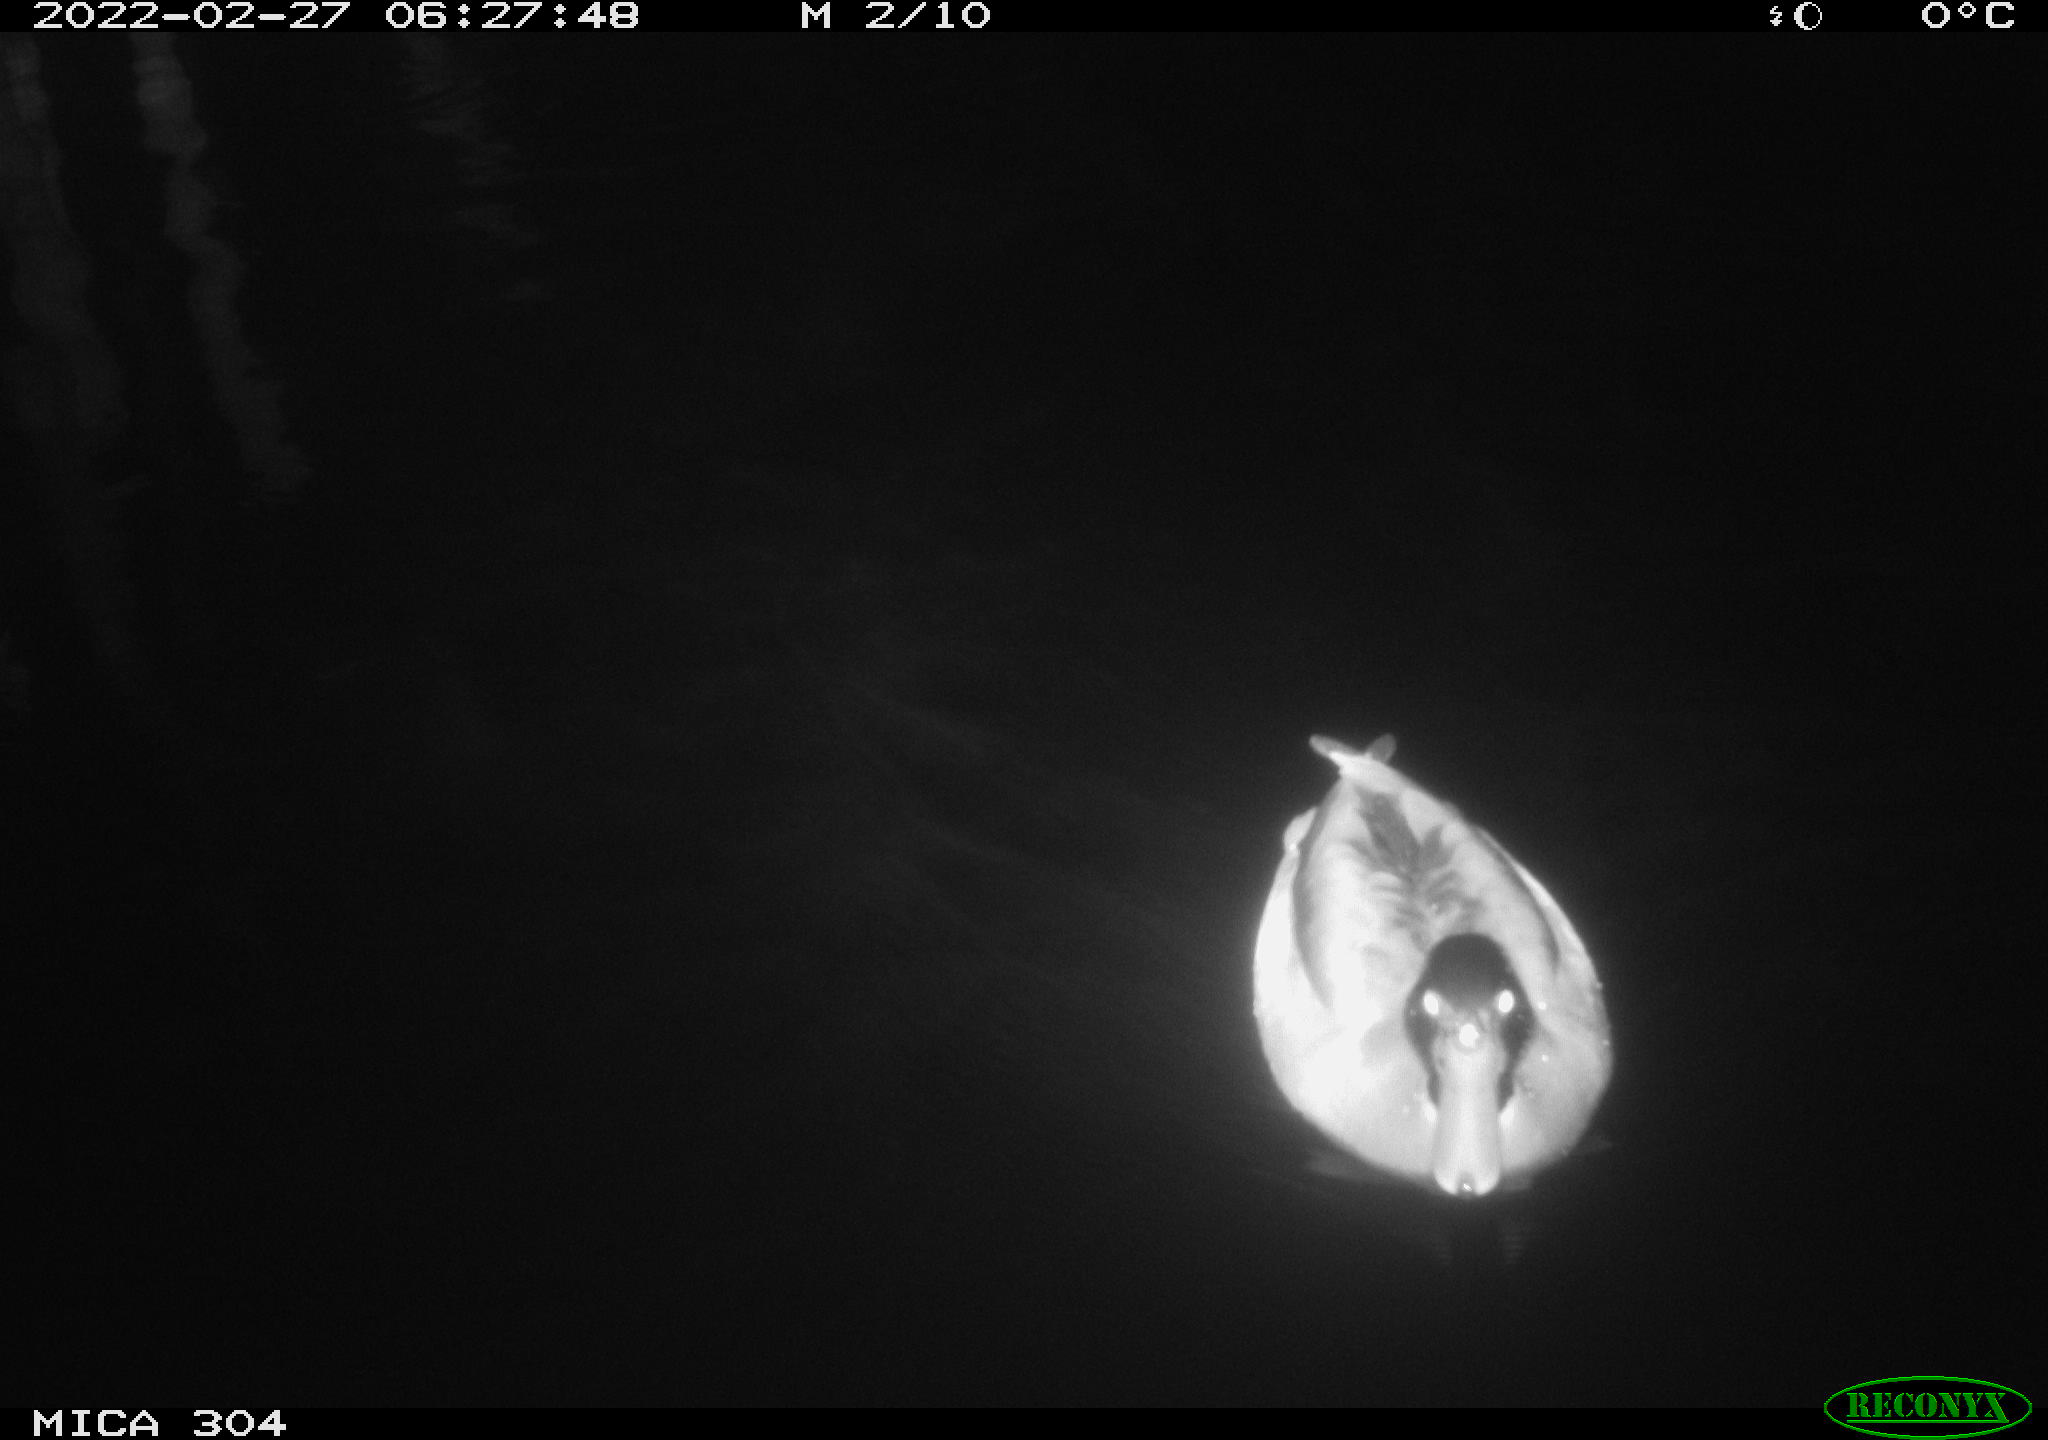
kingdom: Animalia
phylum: Chordata
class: Aves
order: Anseriformes
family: Anatidae
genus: Anas
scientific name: Anas platyrhynchos
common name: Mallard
